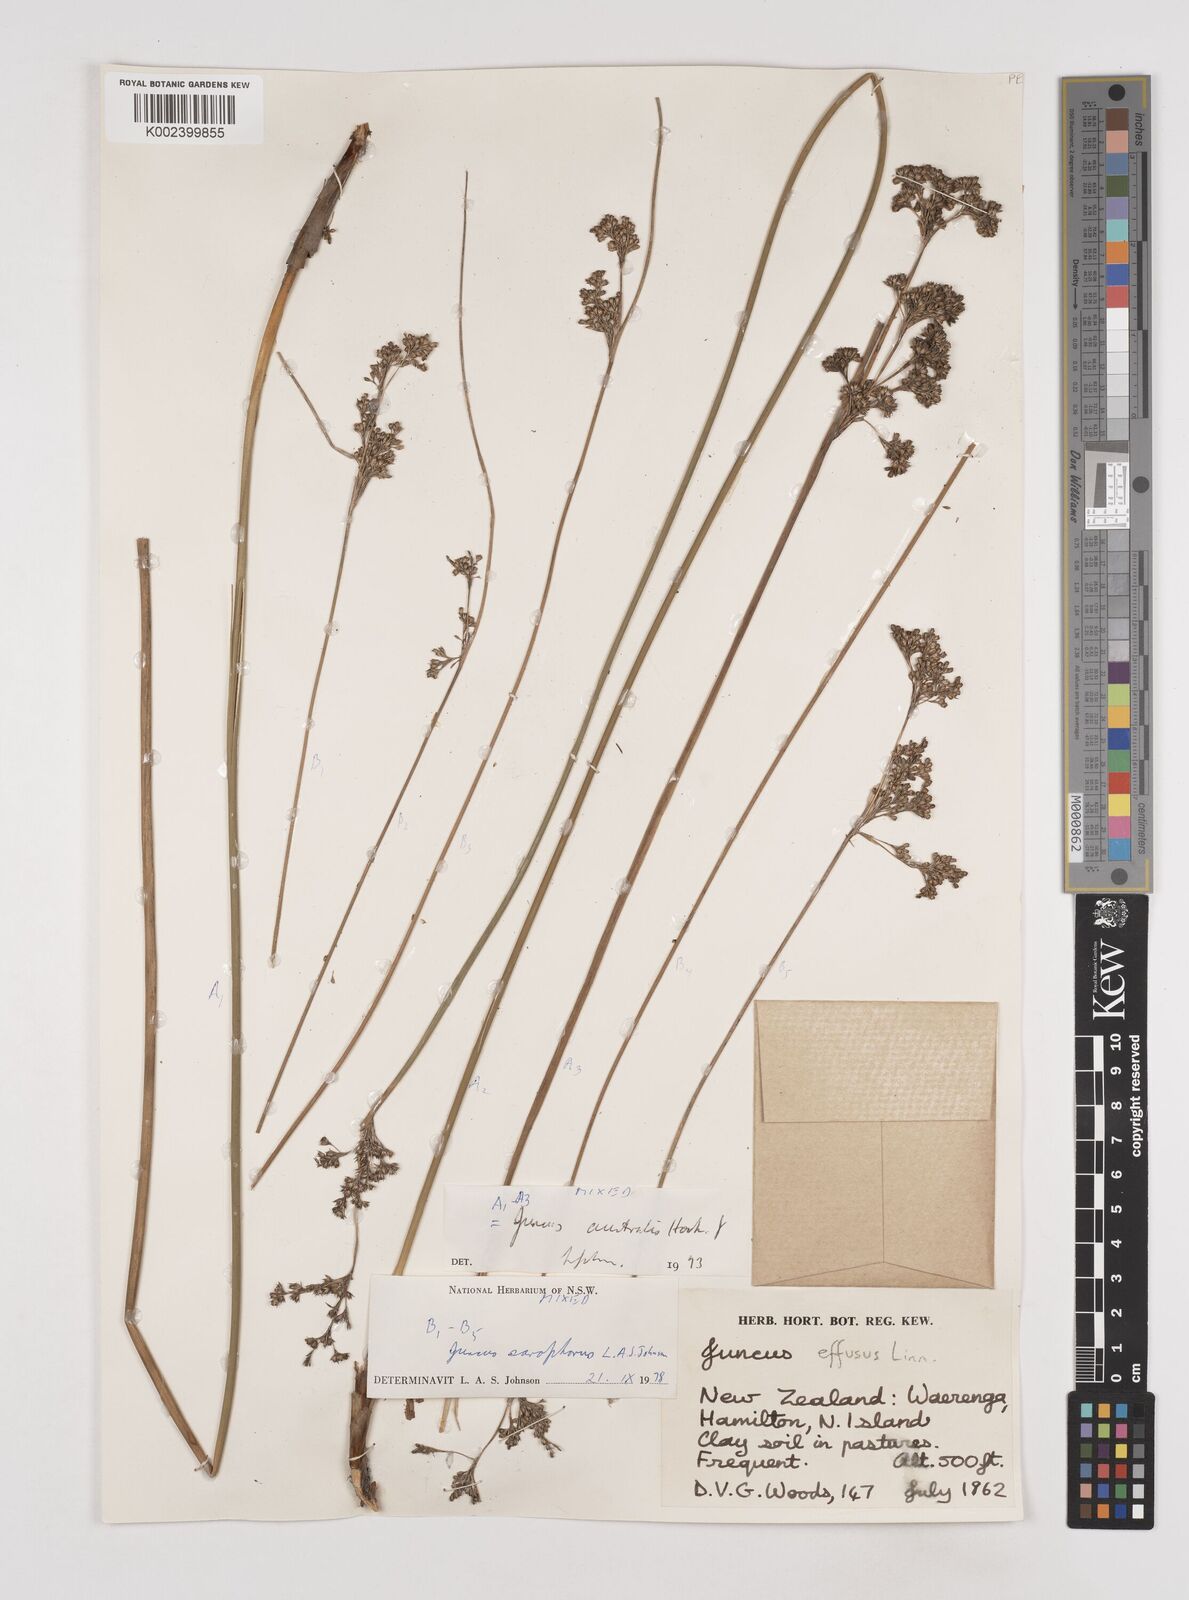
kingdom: Plantae
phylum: Tracheophyta
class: Liliopsida
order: Poales
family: Juncaceae
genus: Juncus
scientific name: Juncus australis
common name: Austral rush
